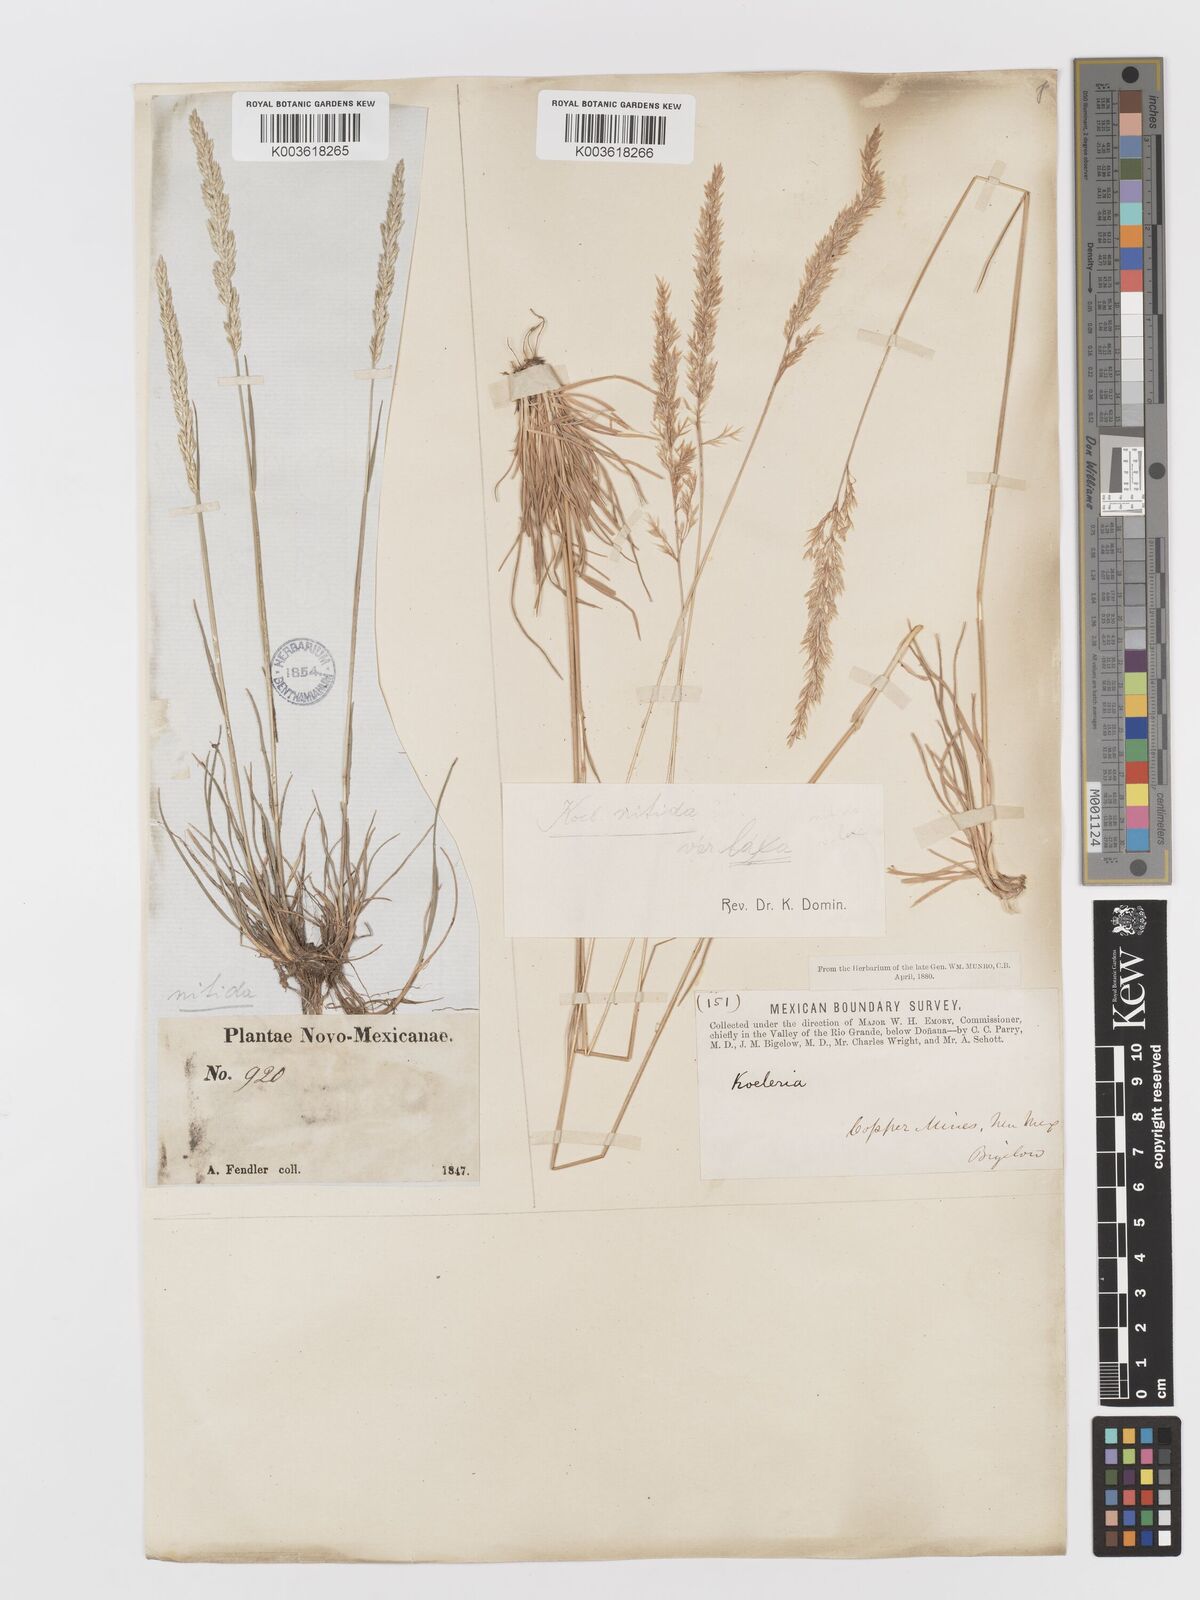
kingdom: Plantae
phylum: Tracheophyta
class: Liliopsida
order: Poales
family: Poaceae
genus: Koeleria
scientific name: Koeleria macrantha
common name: Crested hair-grass
